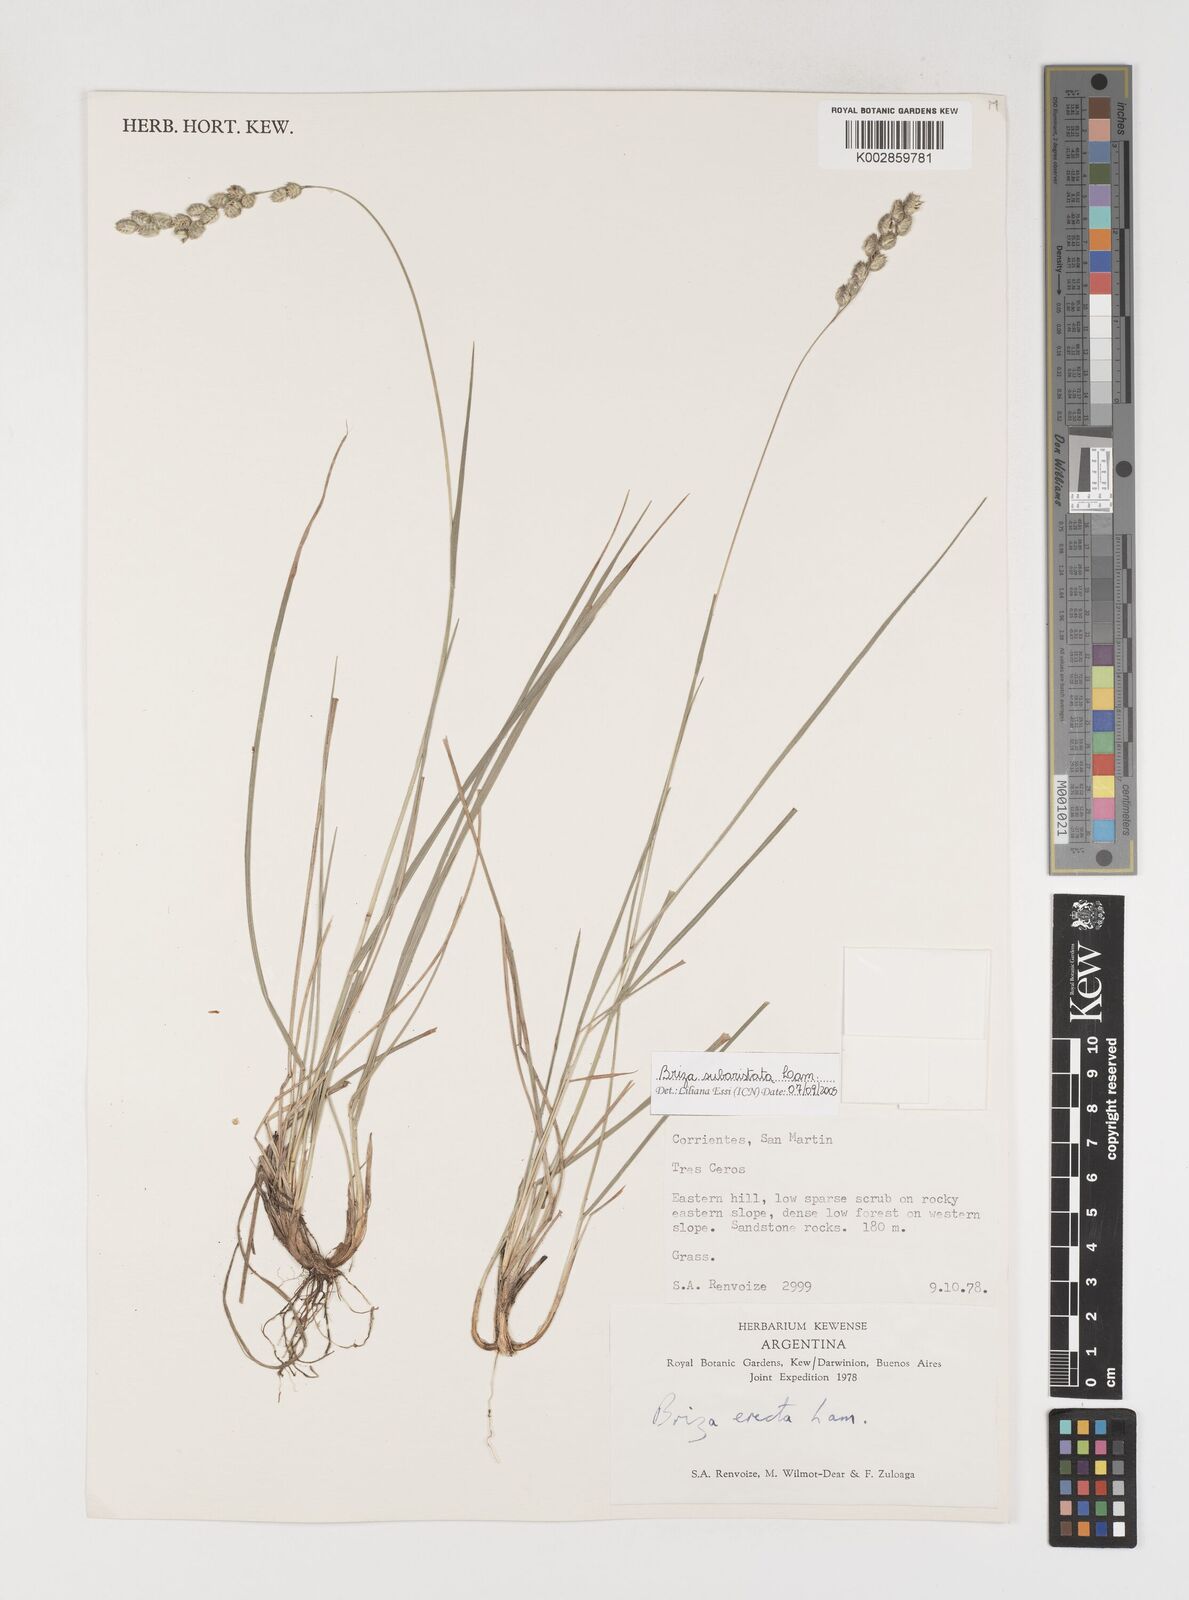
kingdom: Plantae
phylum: Tracheophyta
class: Liliopsida
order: Poales
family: Poaceae
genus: Chascolytrum
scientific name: Chascolytrum subaristatum
